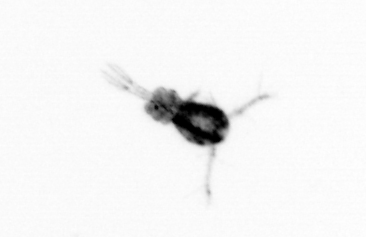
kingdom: Animalia
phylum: Arthropoda
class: Copepoda
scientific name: Copepoda
